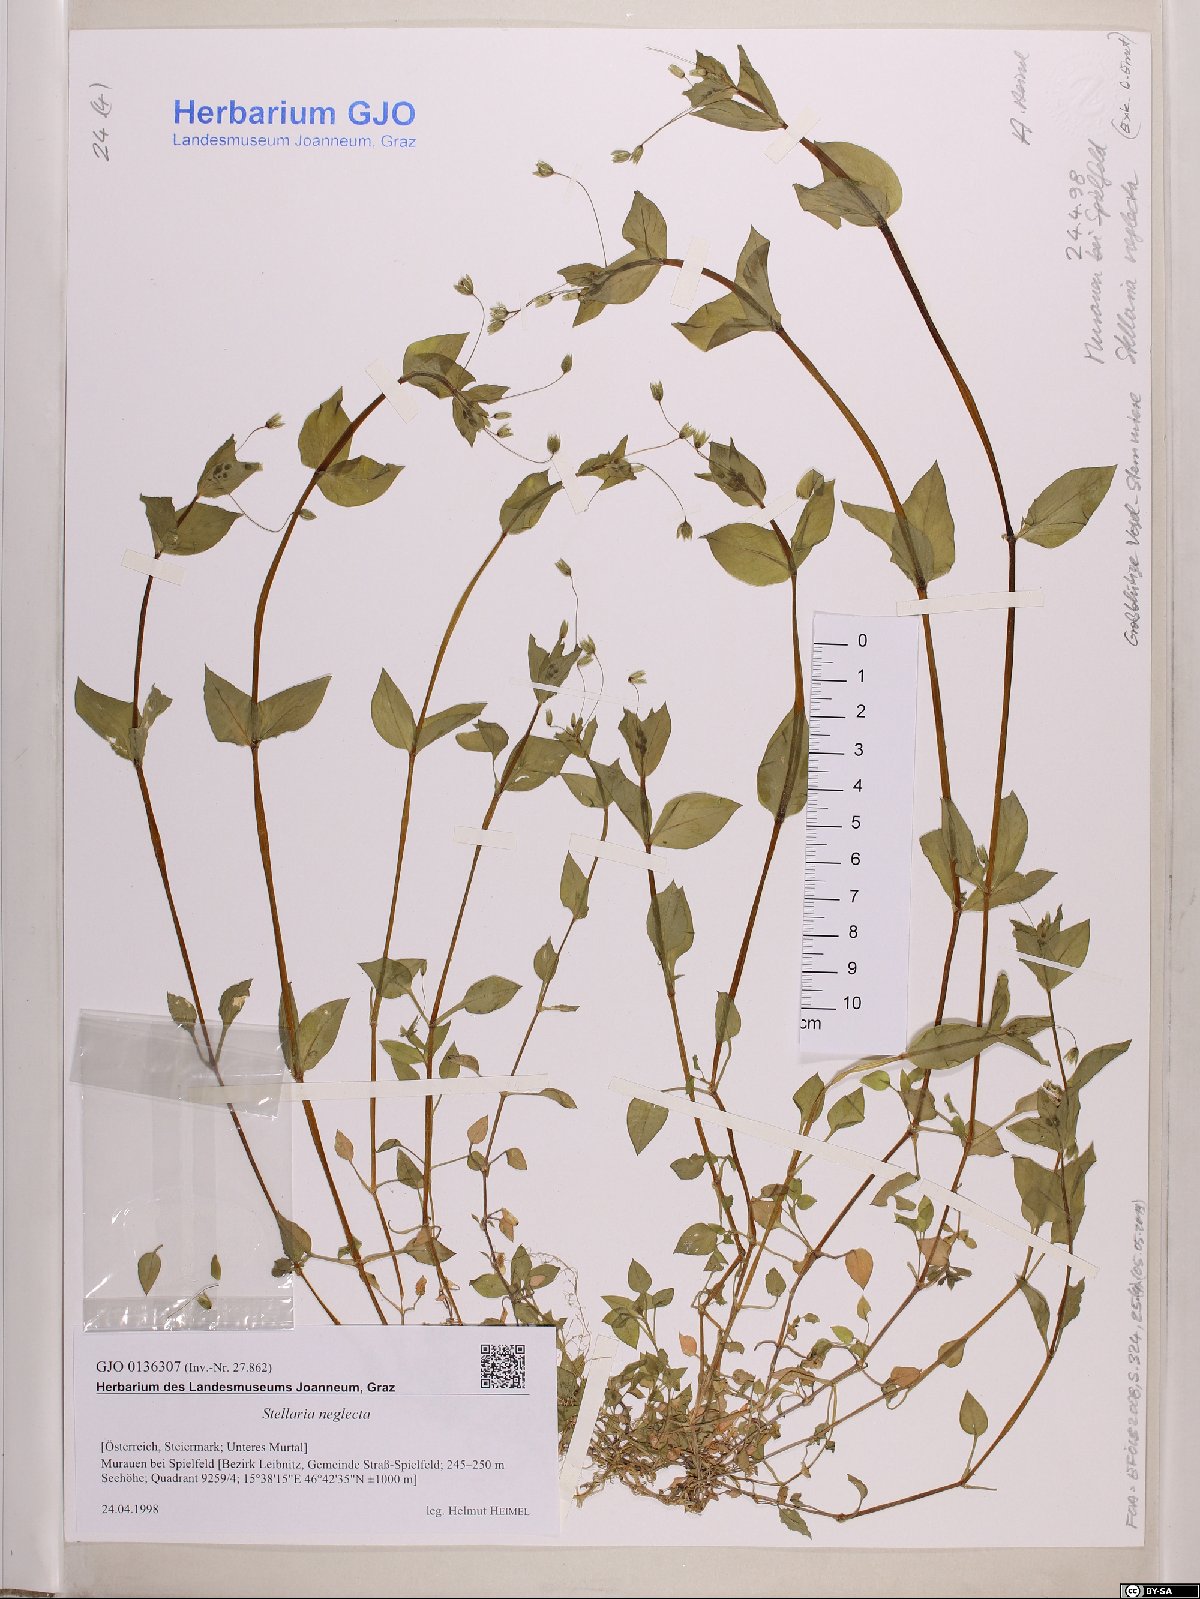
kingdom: Plantae
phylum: Tracheophyta
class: Magnoliopsida
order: Caryophyllales
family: Caryophyllaceae
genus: Stellaria
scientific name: Stellaria neglecta
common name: Greater chickweed
